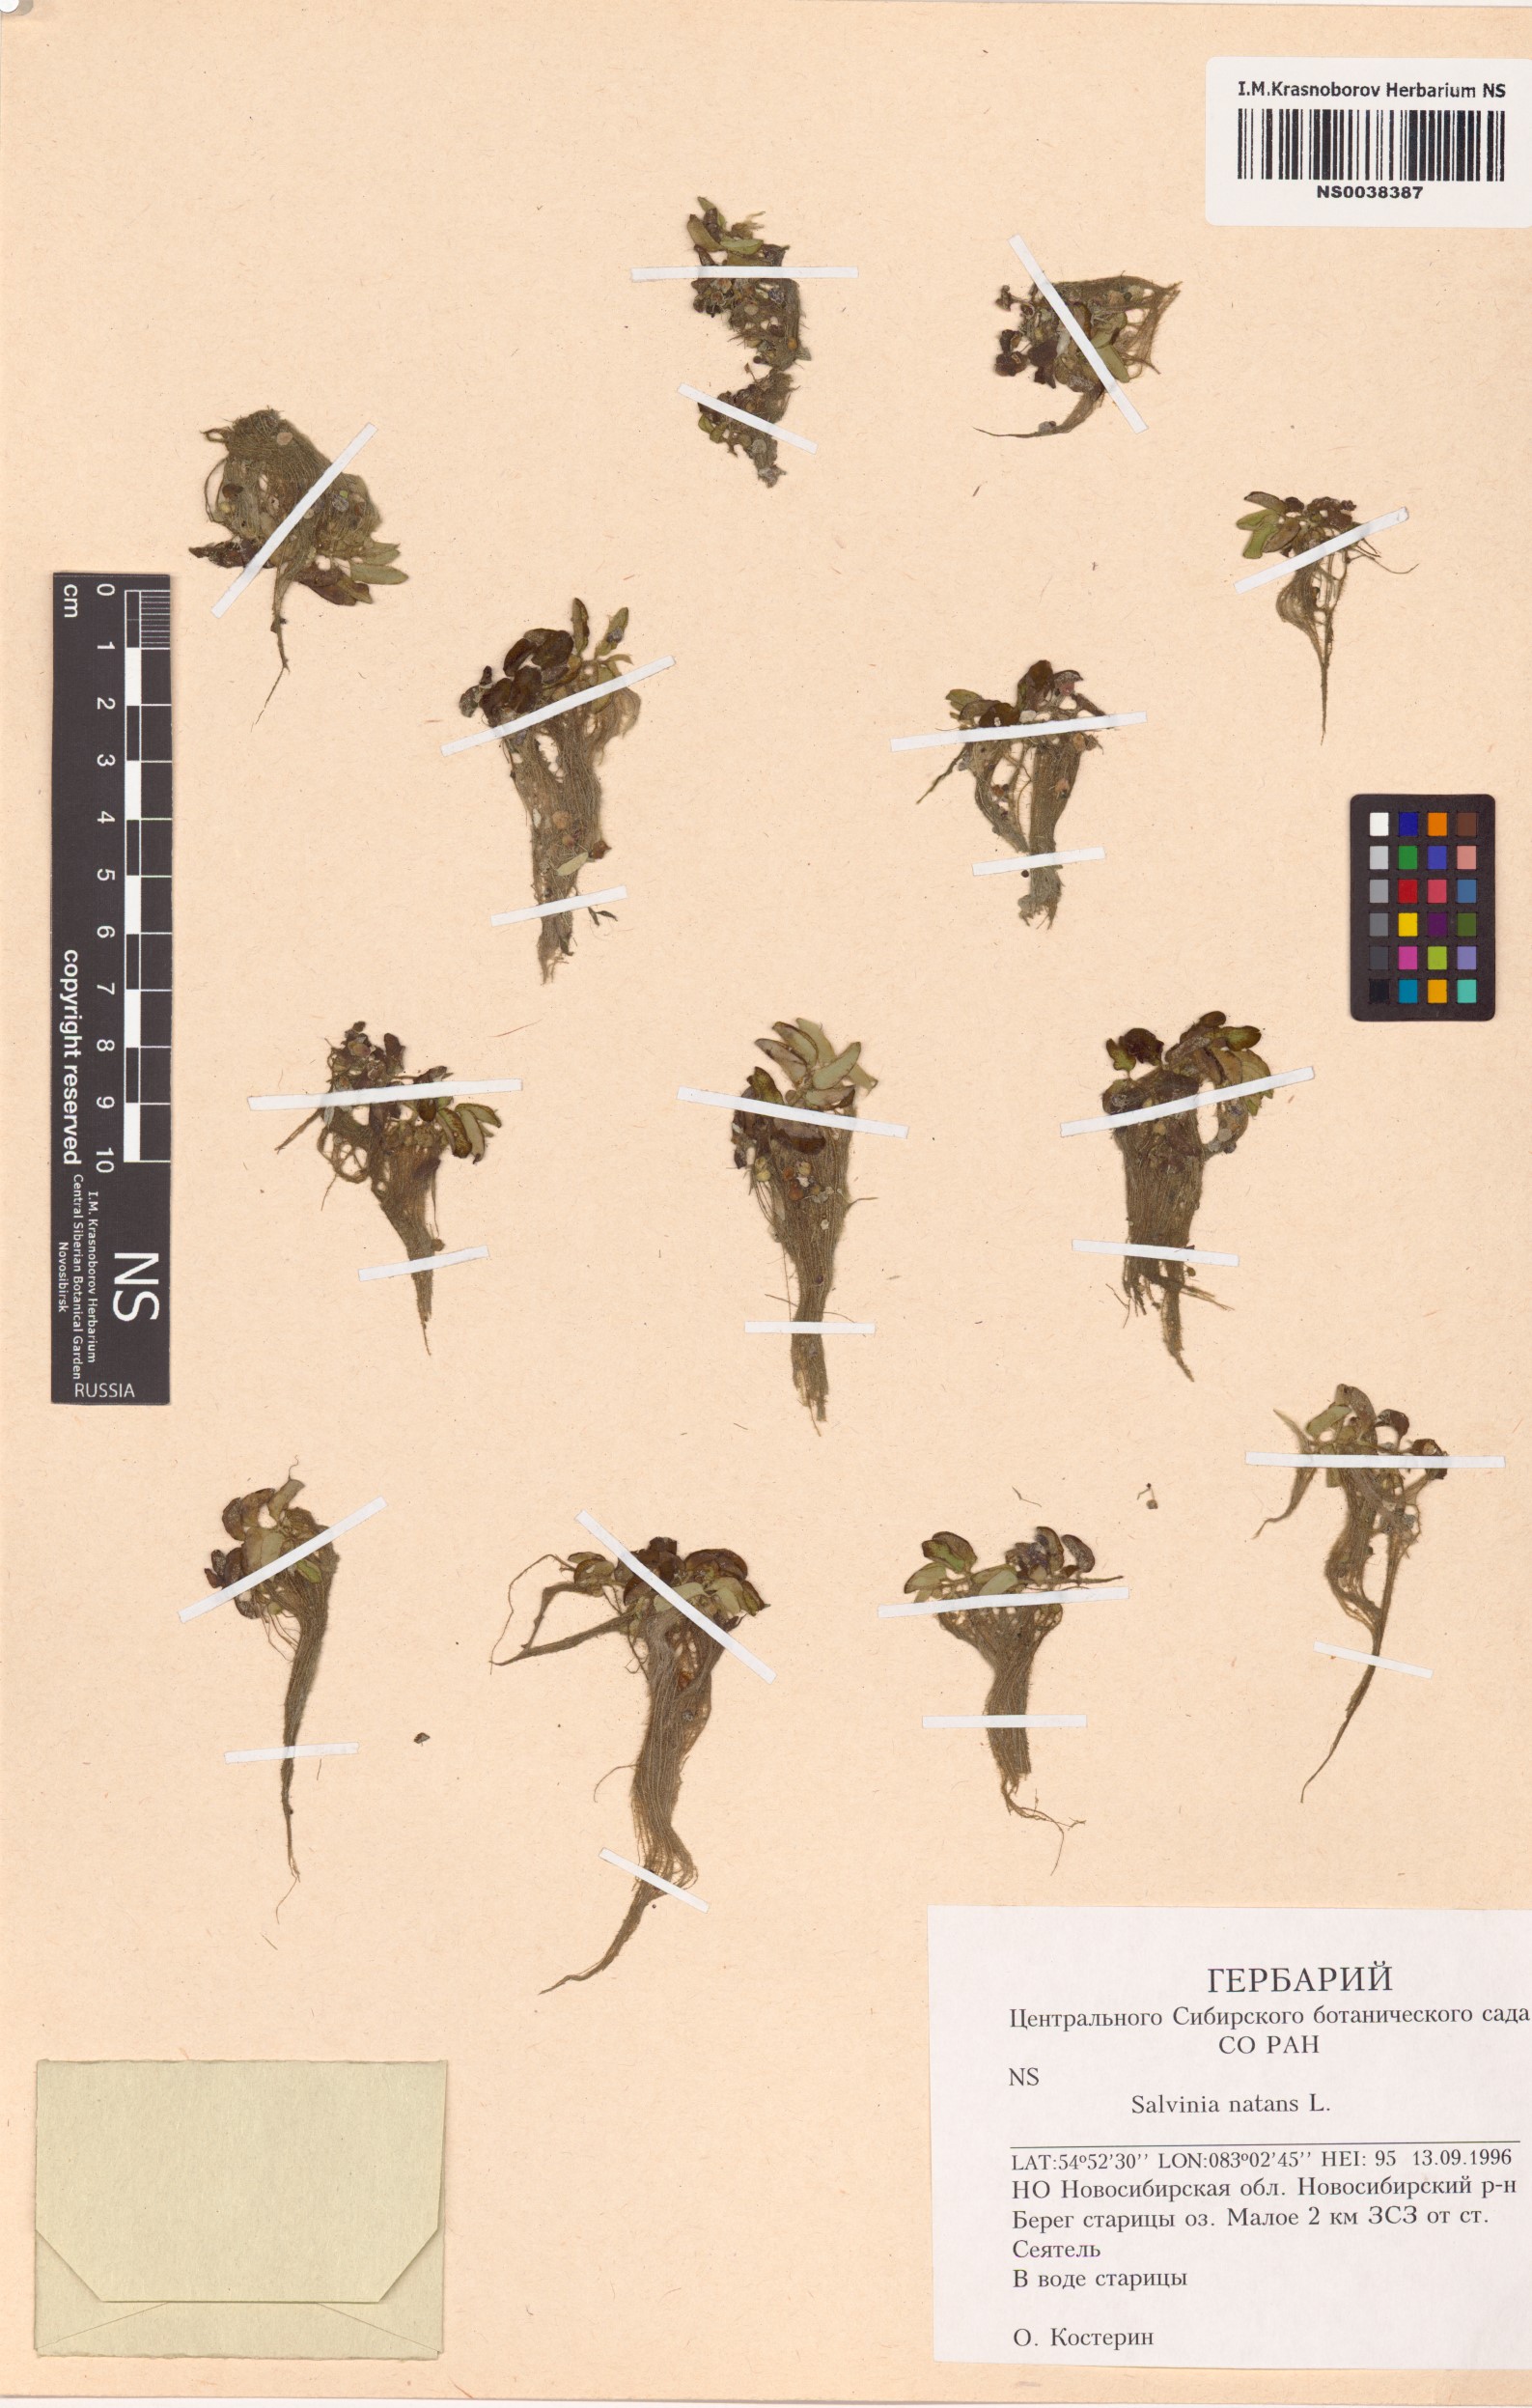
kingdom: Plantae
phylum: Tracheophyta
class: Polypodiopsida
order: Salviniales
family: Salviniaceae
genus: Salvinia
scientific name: Salvinia natans
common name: Floating fern
